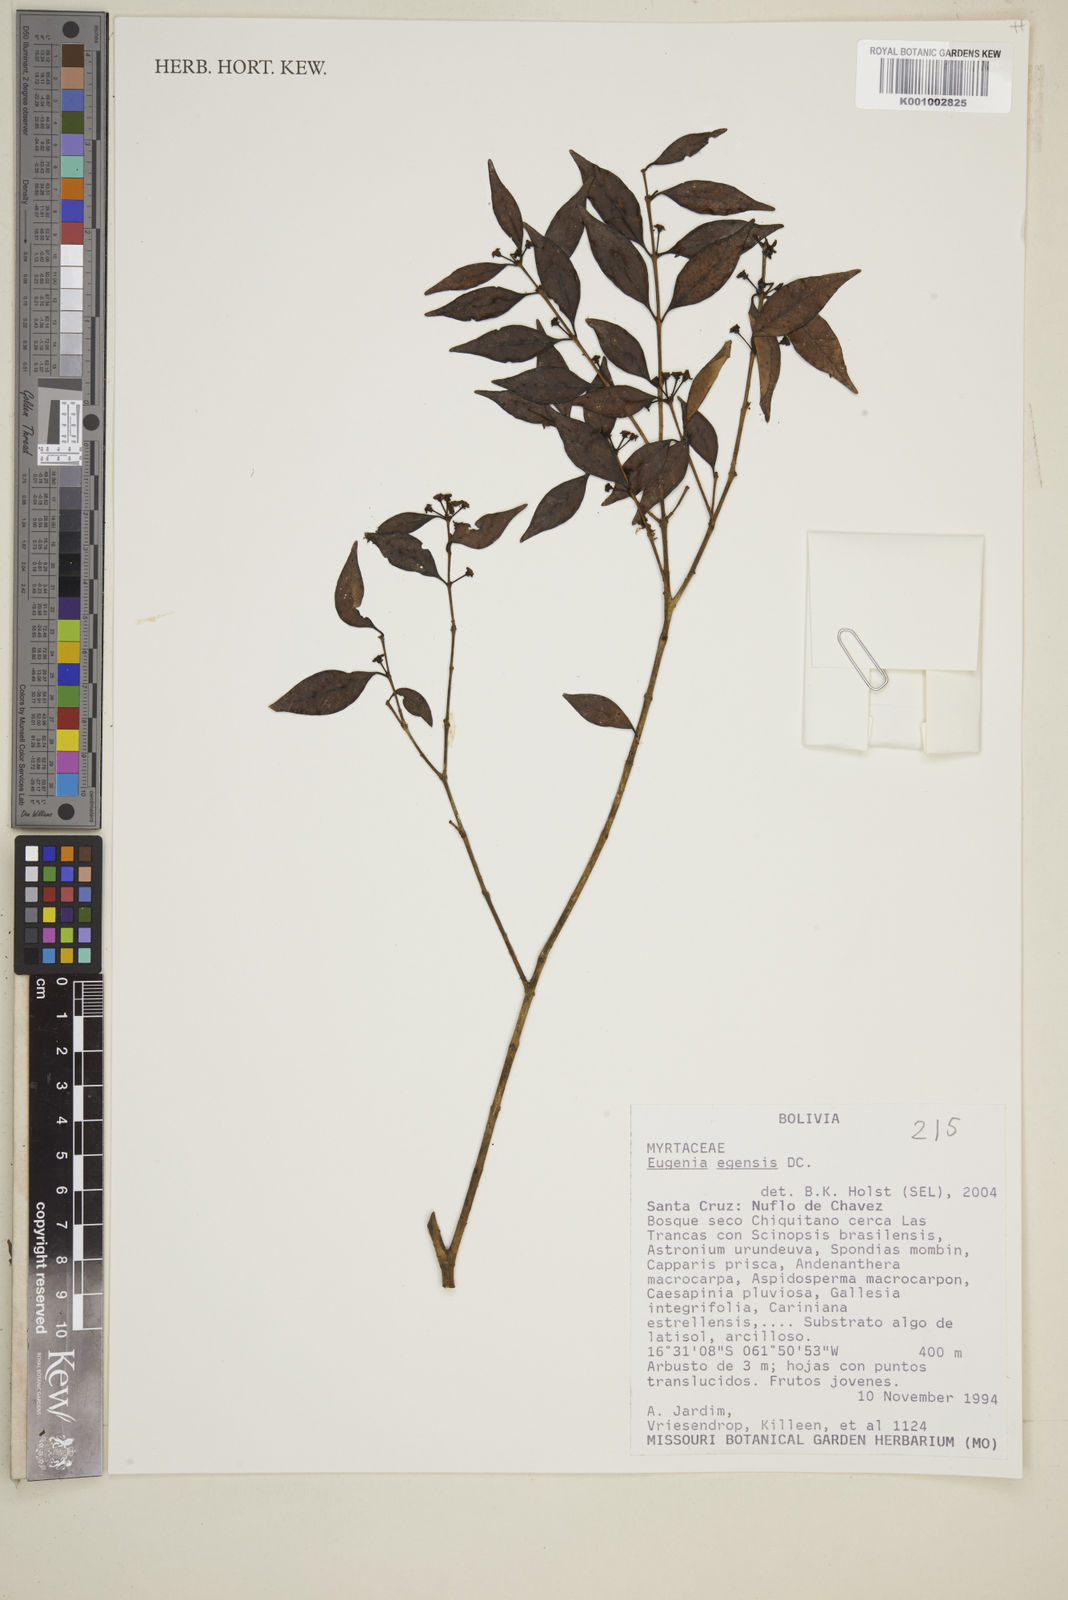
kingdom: Plantae
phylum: Tracheophyta
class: Magnoliopsida
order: Myrtales
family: Myrtaceae
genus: Eugenia
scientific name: Eugenia egensis
